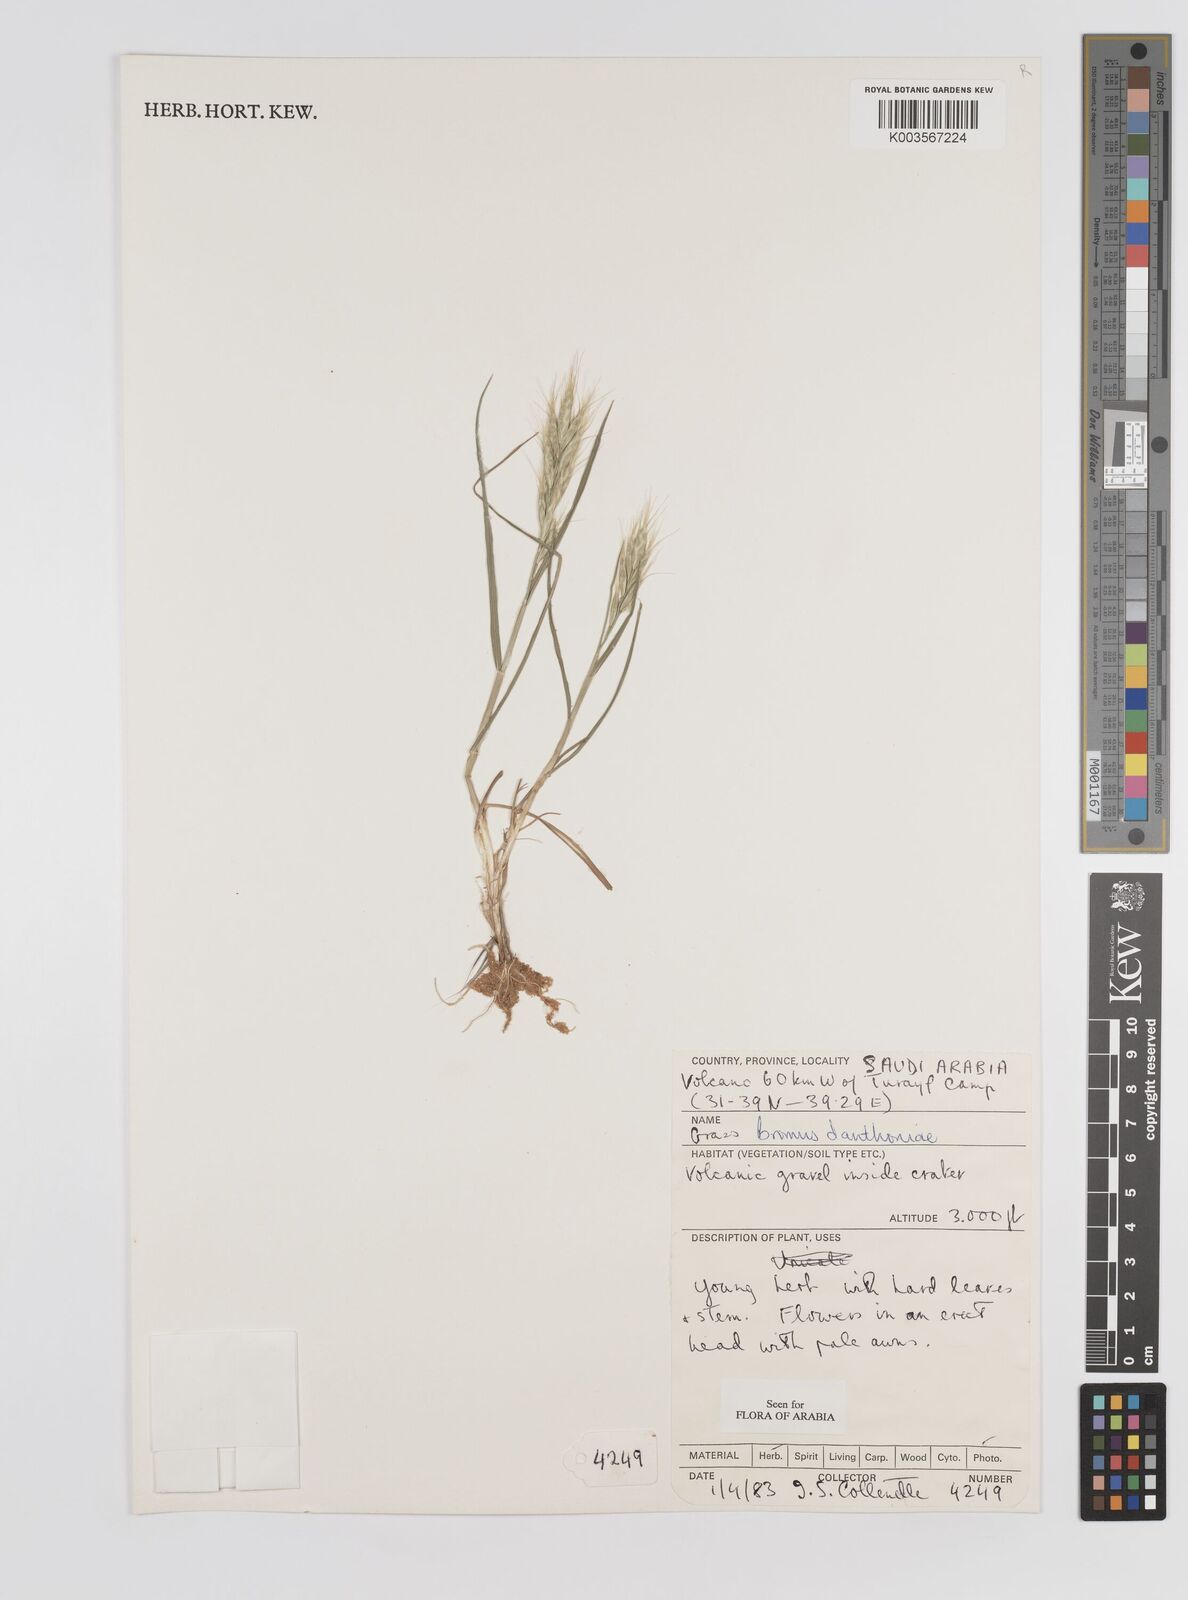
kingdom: Plantae
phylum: Tracheophyta
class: Liliopsida
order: Poales
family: Poaceae
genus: Bromus
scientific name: Bromus danthoniae
